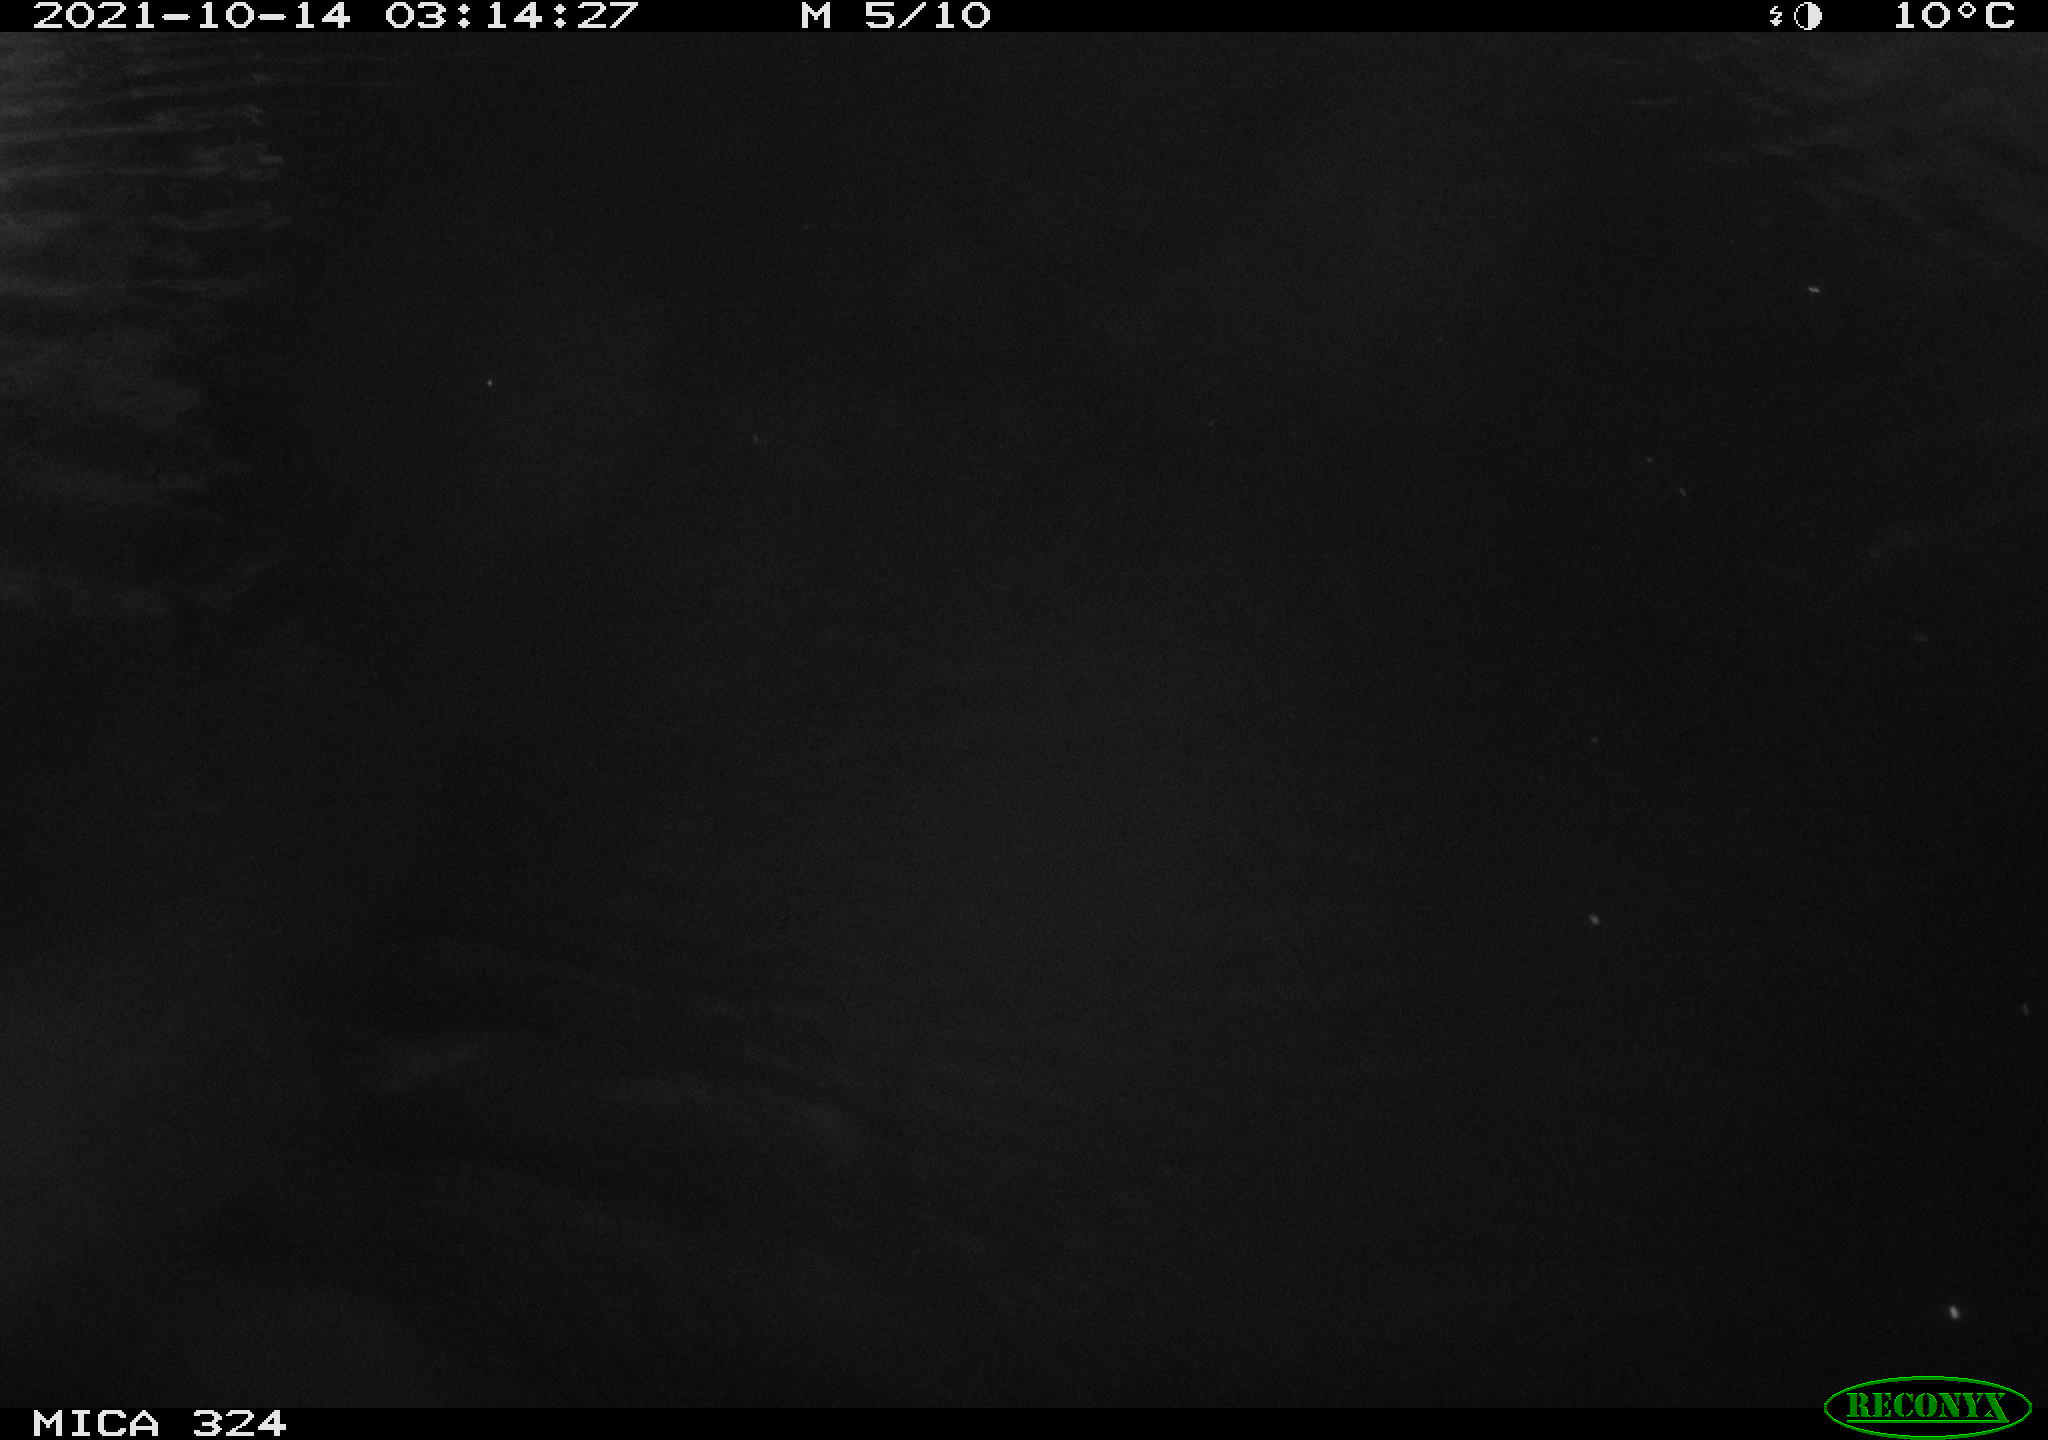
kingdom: Animalia
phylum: Chordata
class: Mammalia
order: Rodentia
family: Cricetidae
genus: Ondatra
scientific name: Ondatra zibethicus
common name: Muskrat
